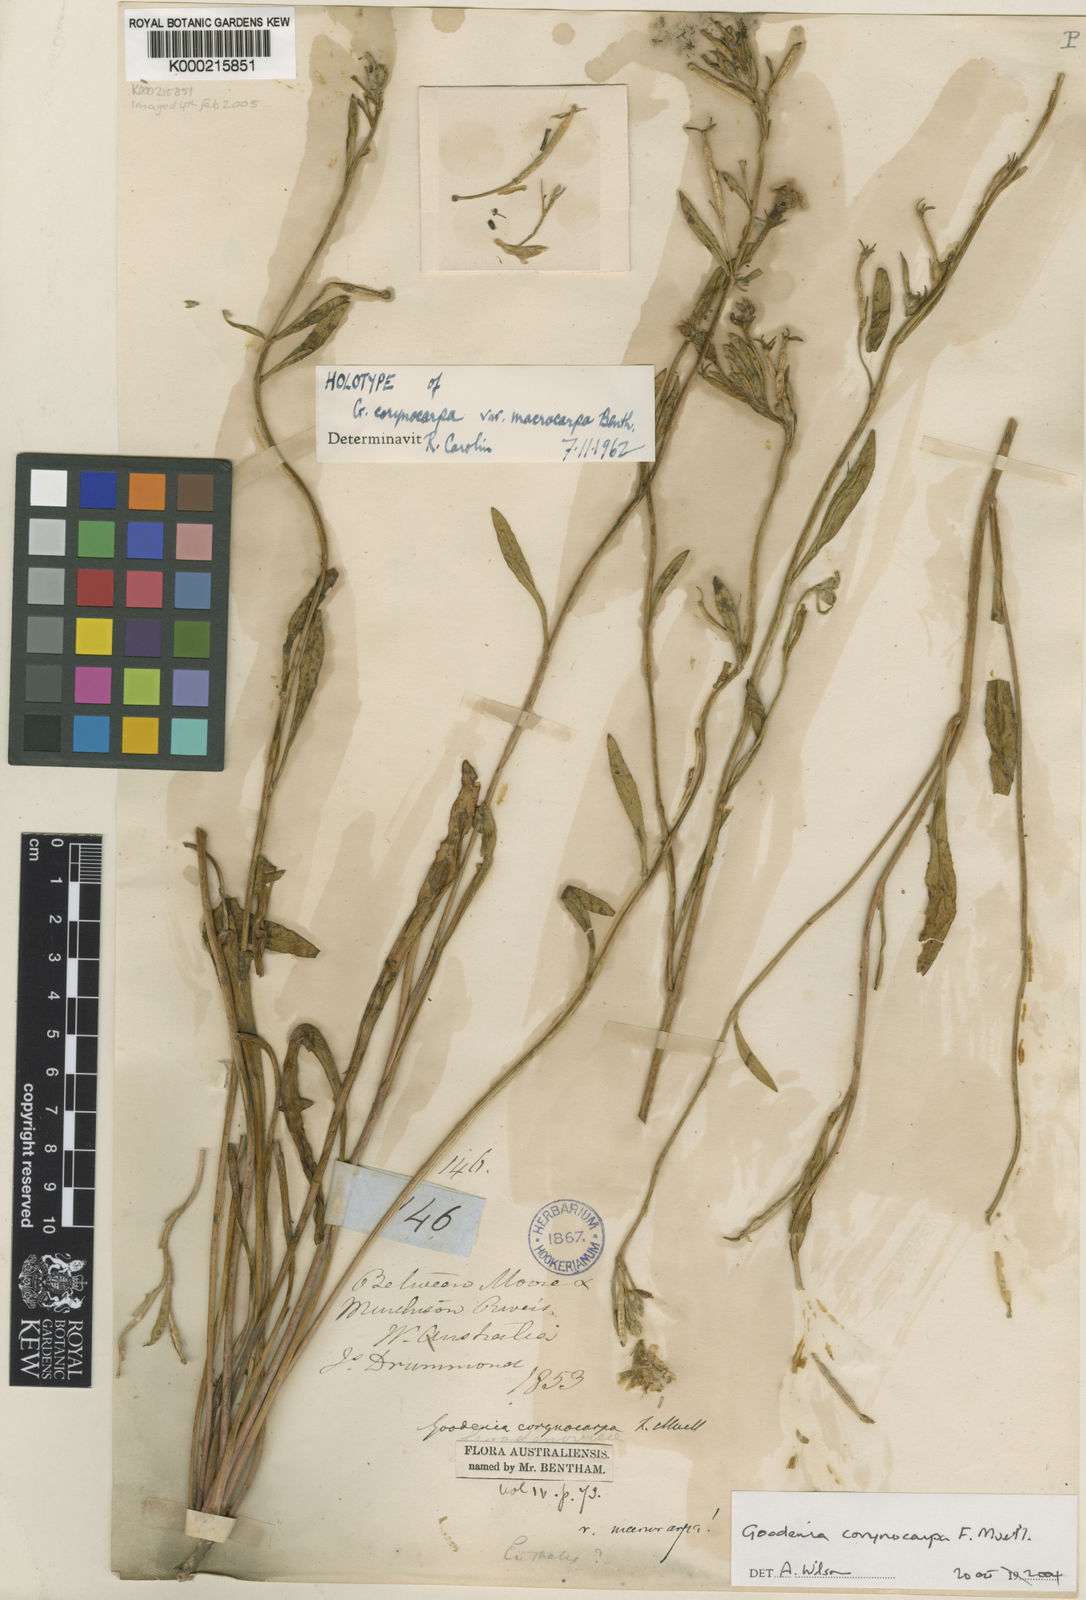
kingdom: Plantae
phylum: Tracheophyta
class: Magnoliopsida
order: Asterales
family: Goodeniaceae
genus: Goodenia
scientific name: Goodenia corynocarpa
